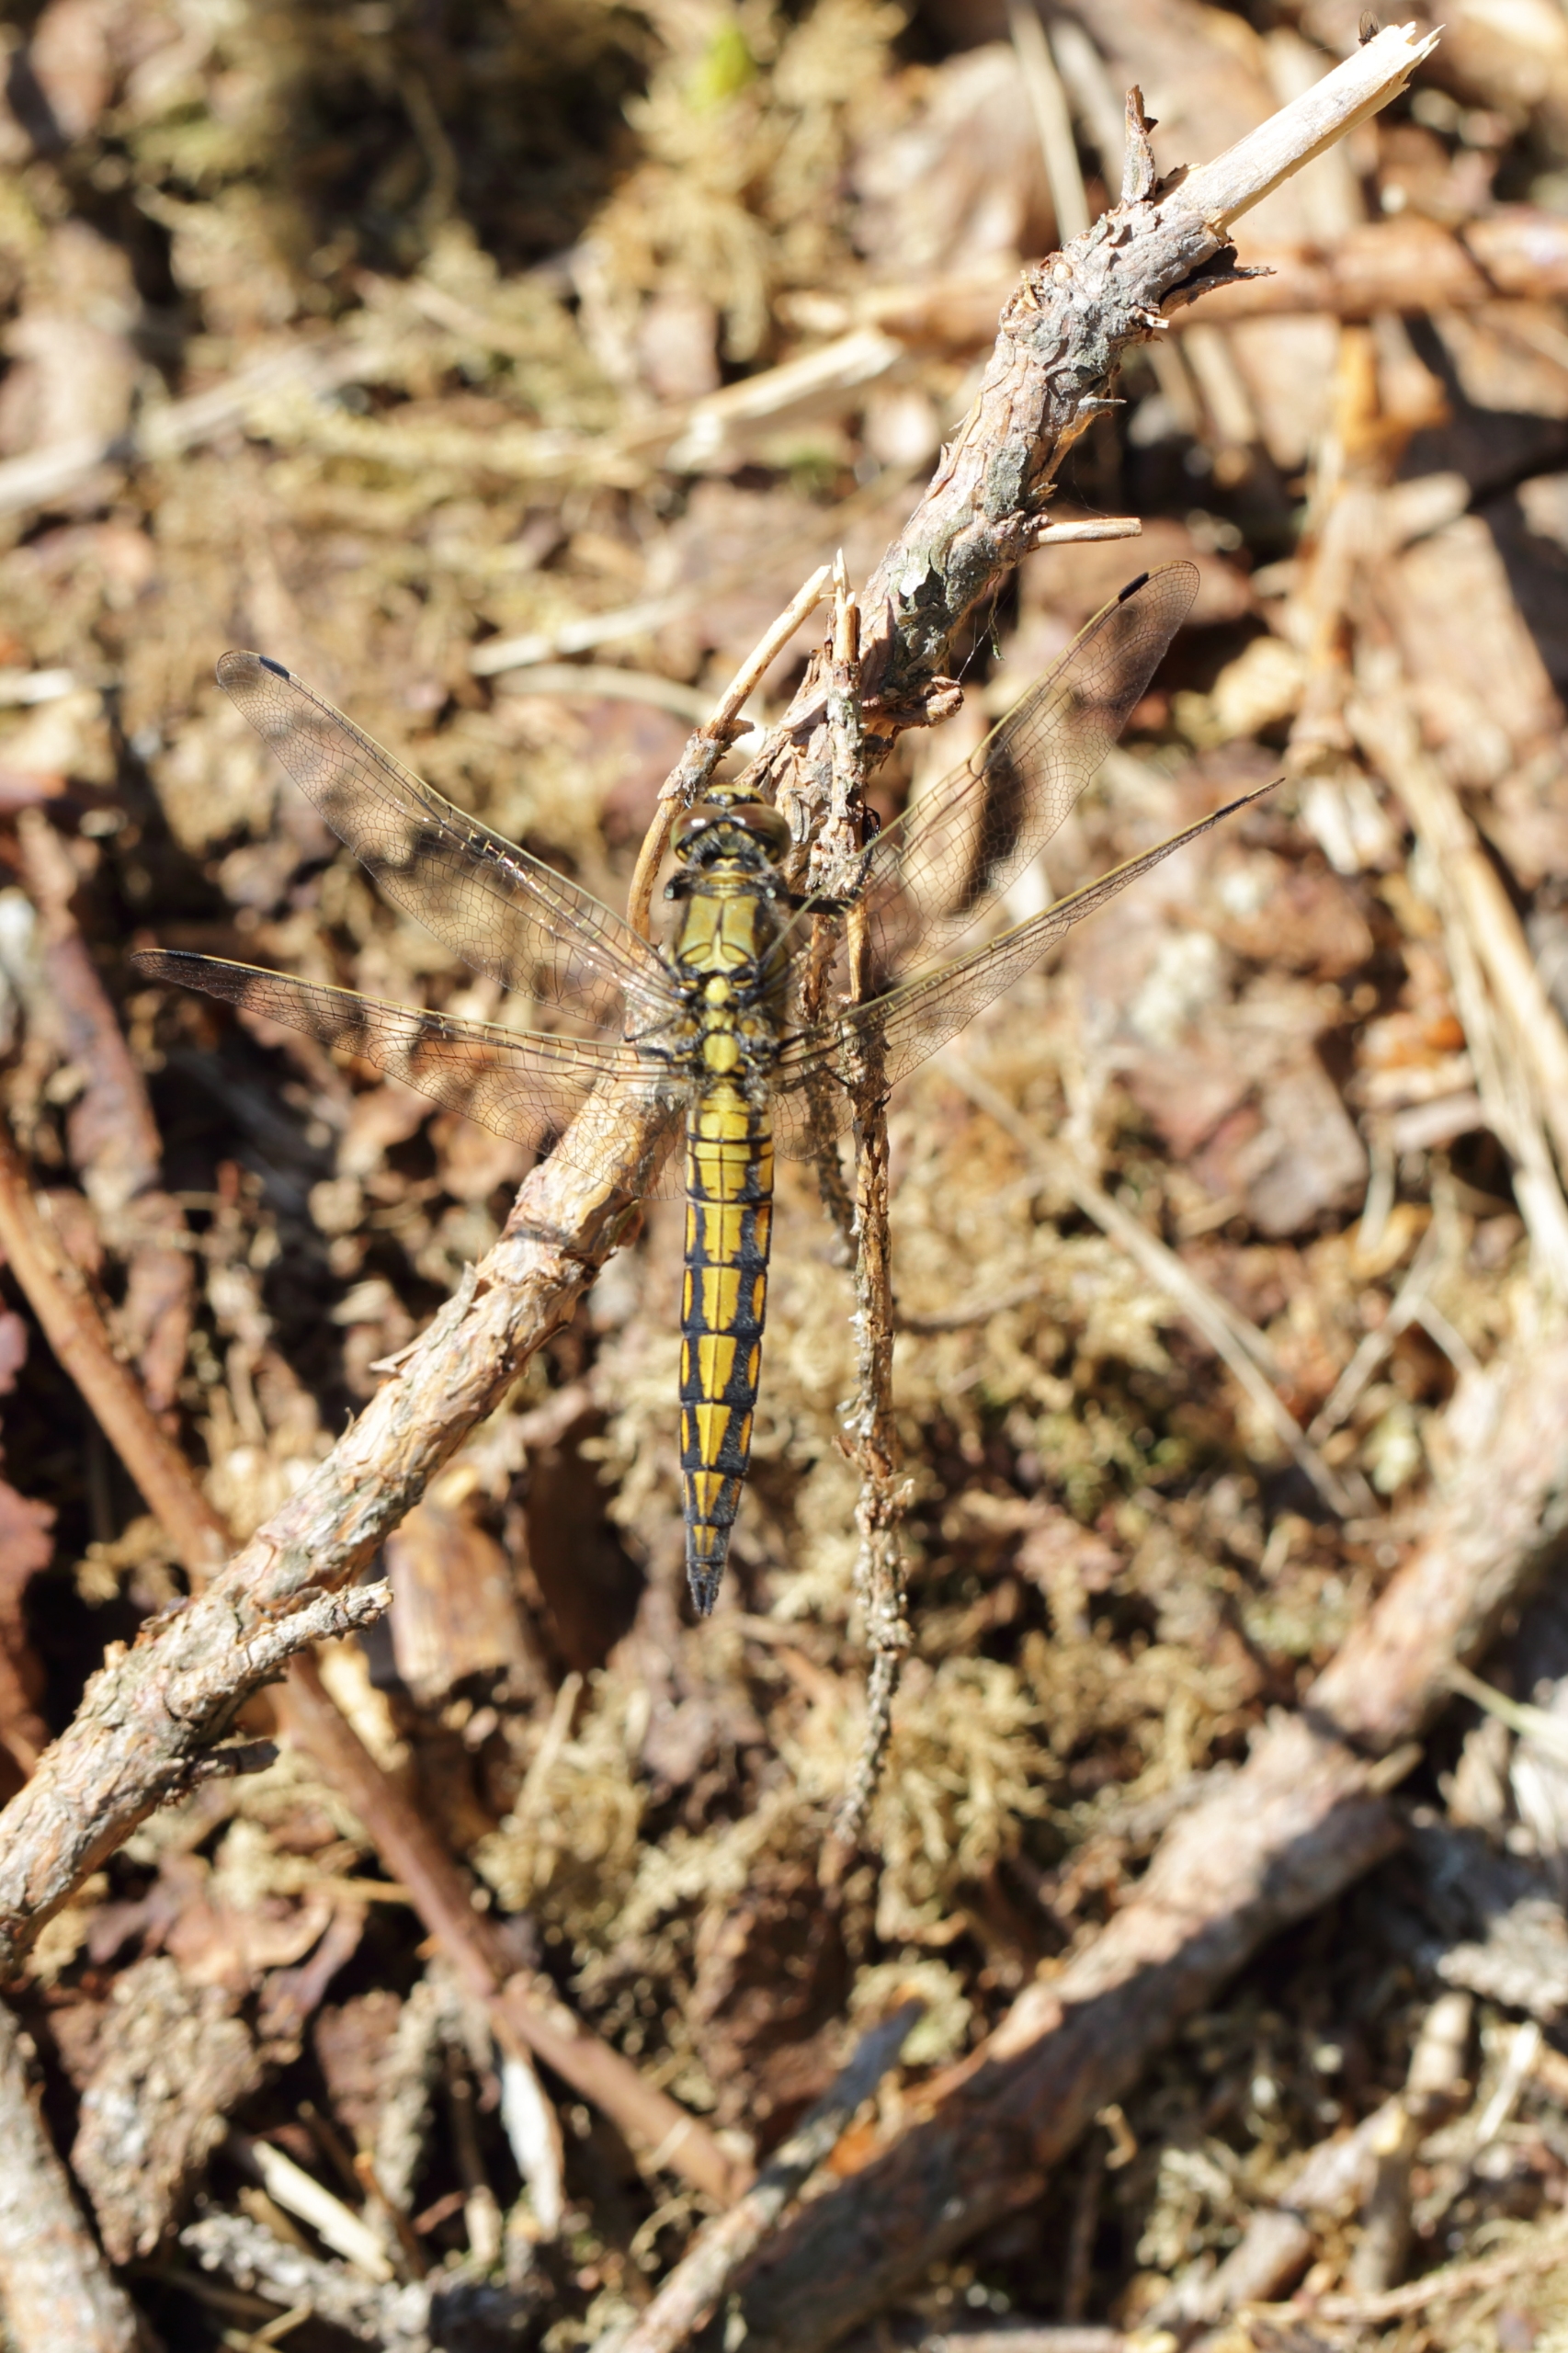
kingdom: Animalia
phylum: Arthropoda
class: Insecta
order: Odonata
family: Libellulidae
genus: Orthetrum
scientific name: Orthetrum cancellatum
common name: Stor blåpil
